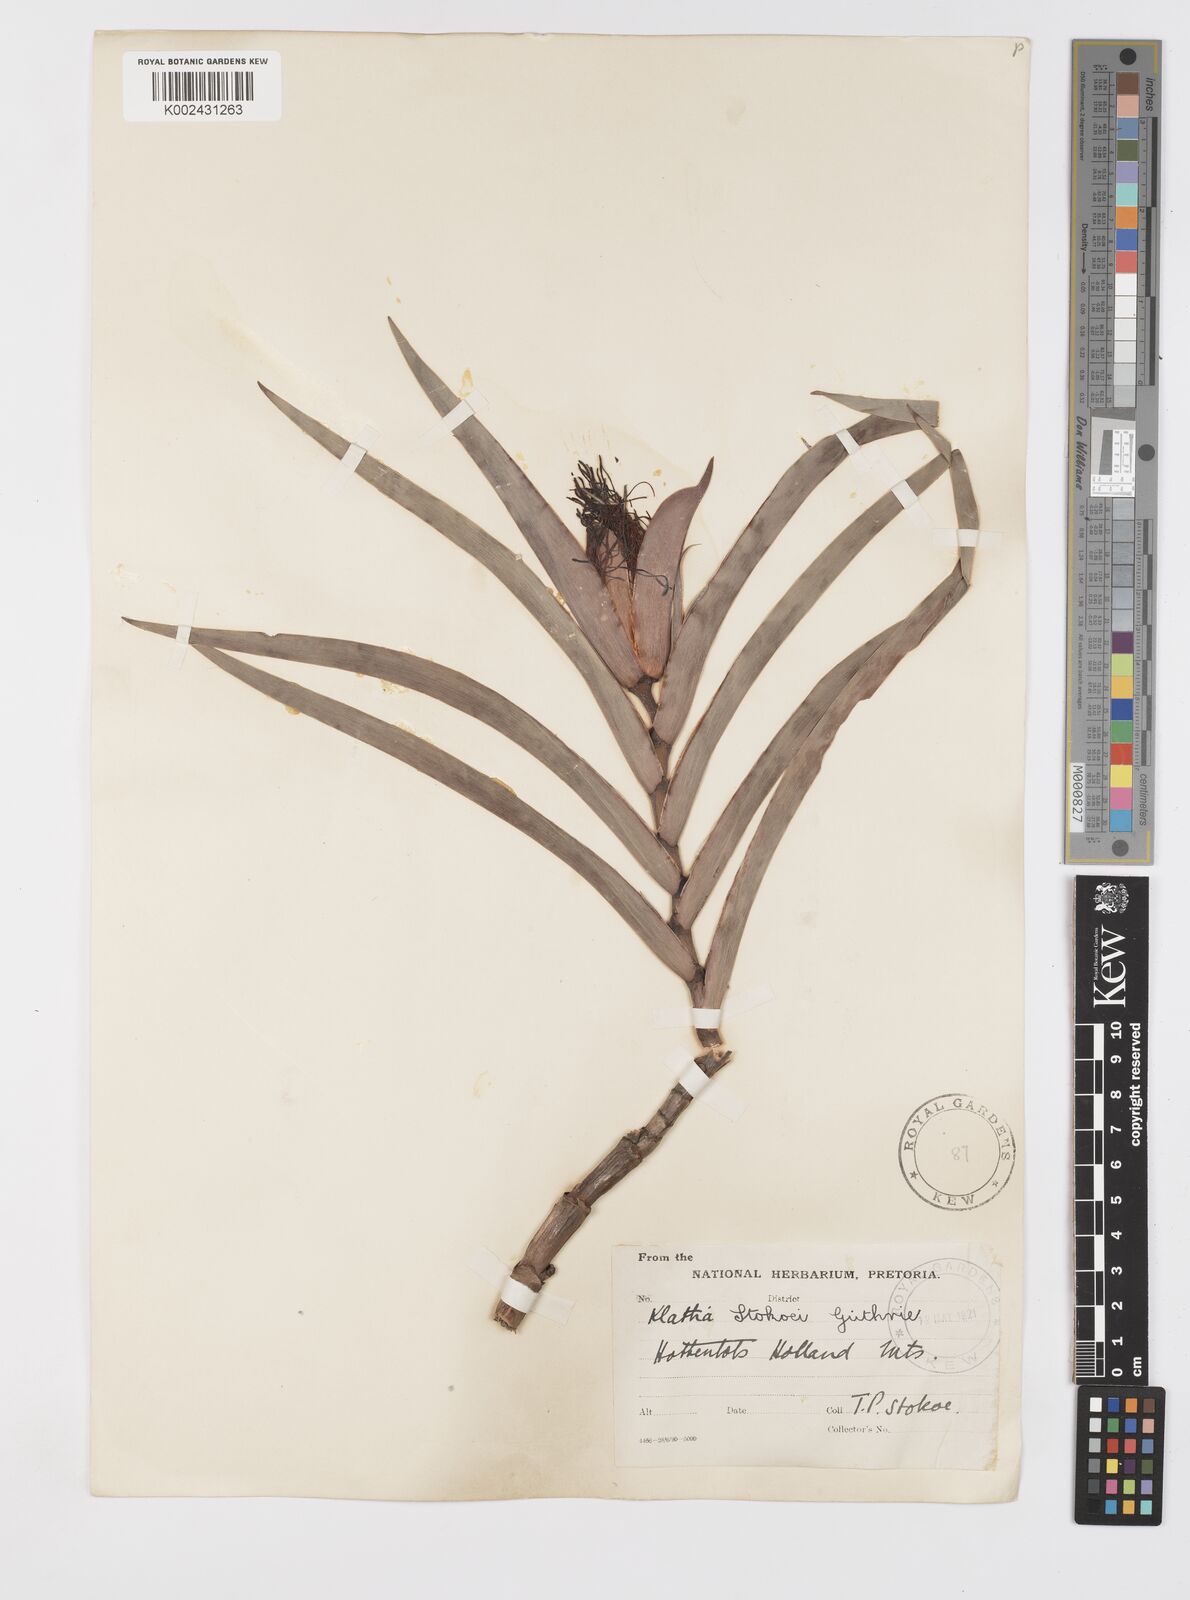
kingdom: Plantae
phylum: Tracheophyta
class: Liliopsida
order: Asparagales
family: Iridaceae
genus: Klattia
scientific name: Klattia stokoei
